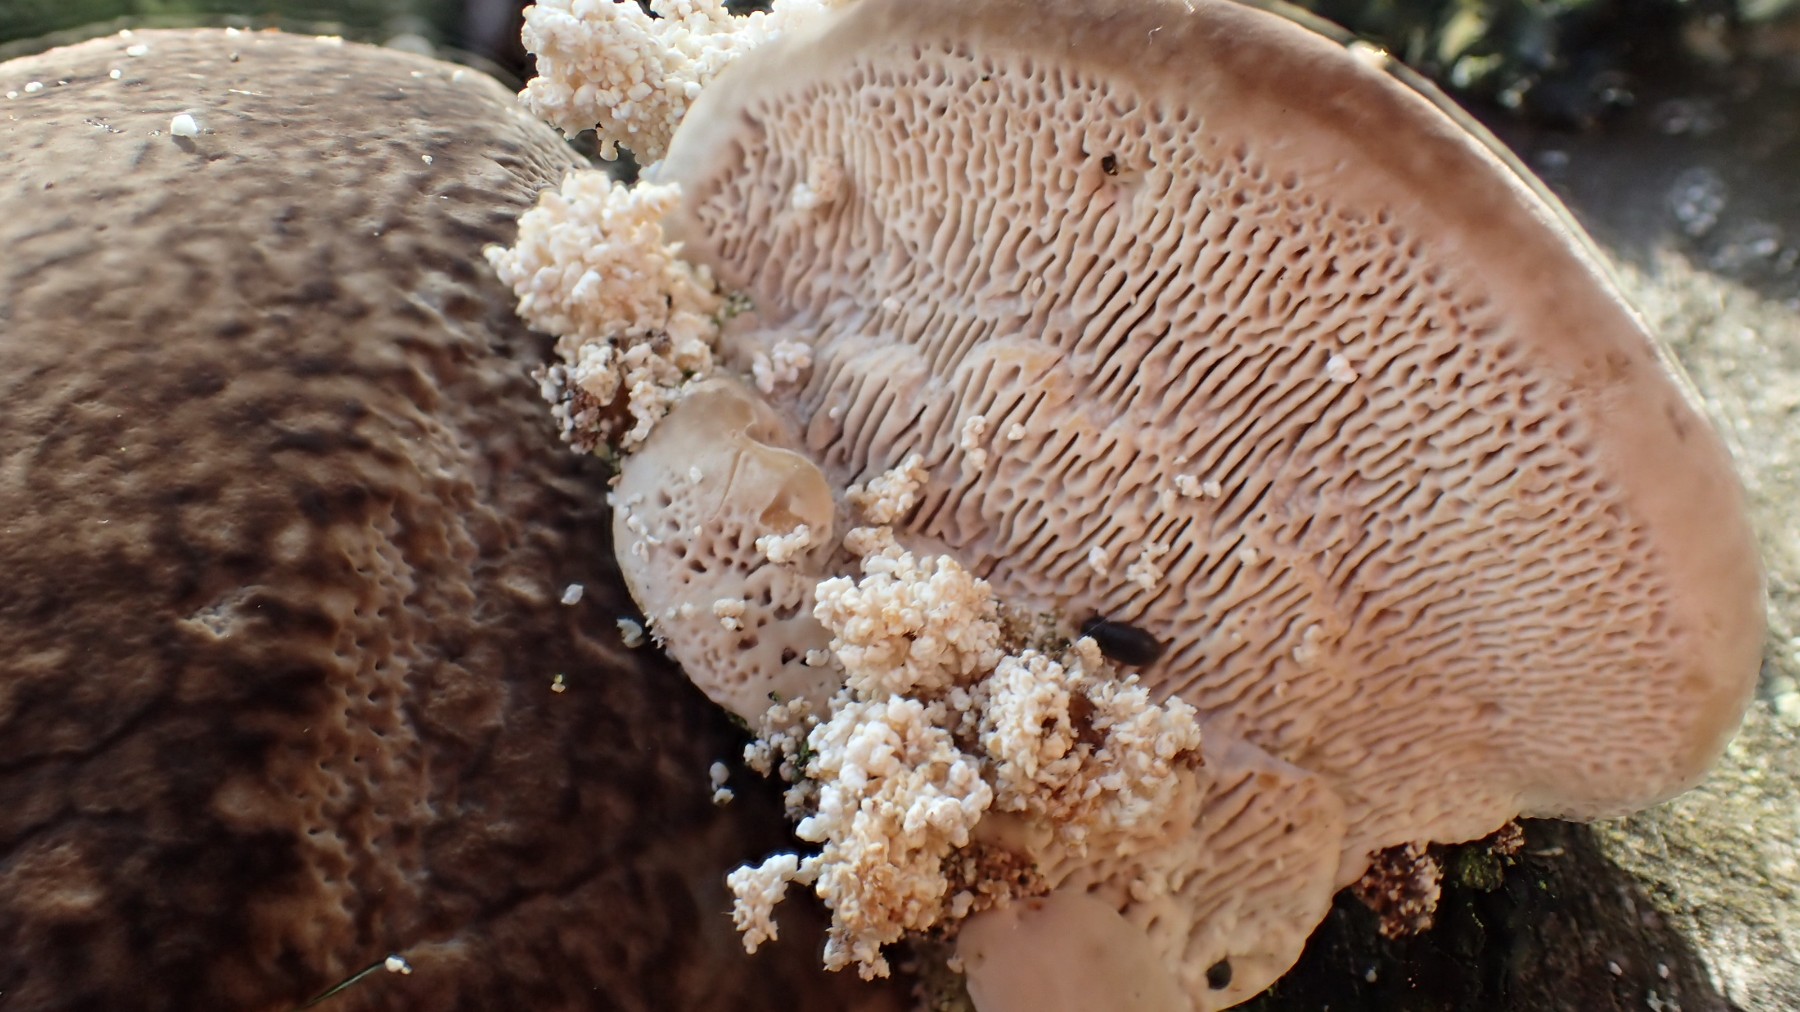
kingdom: Fungi
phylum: Basidiomycota
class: Agaricomycetes
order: Polyporales
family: Polyporaceae
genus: Trametes
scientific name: Trametes gibbosa
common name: puklet læderporesvamp
